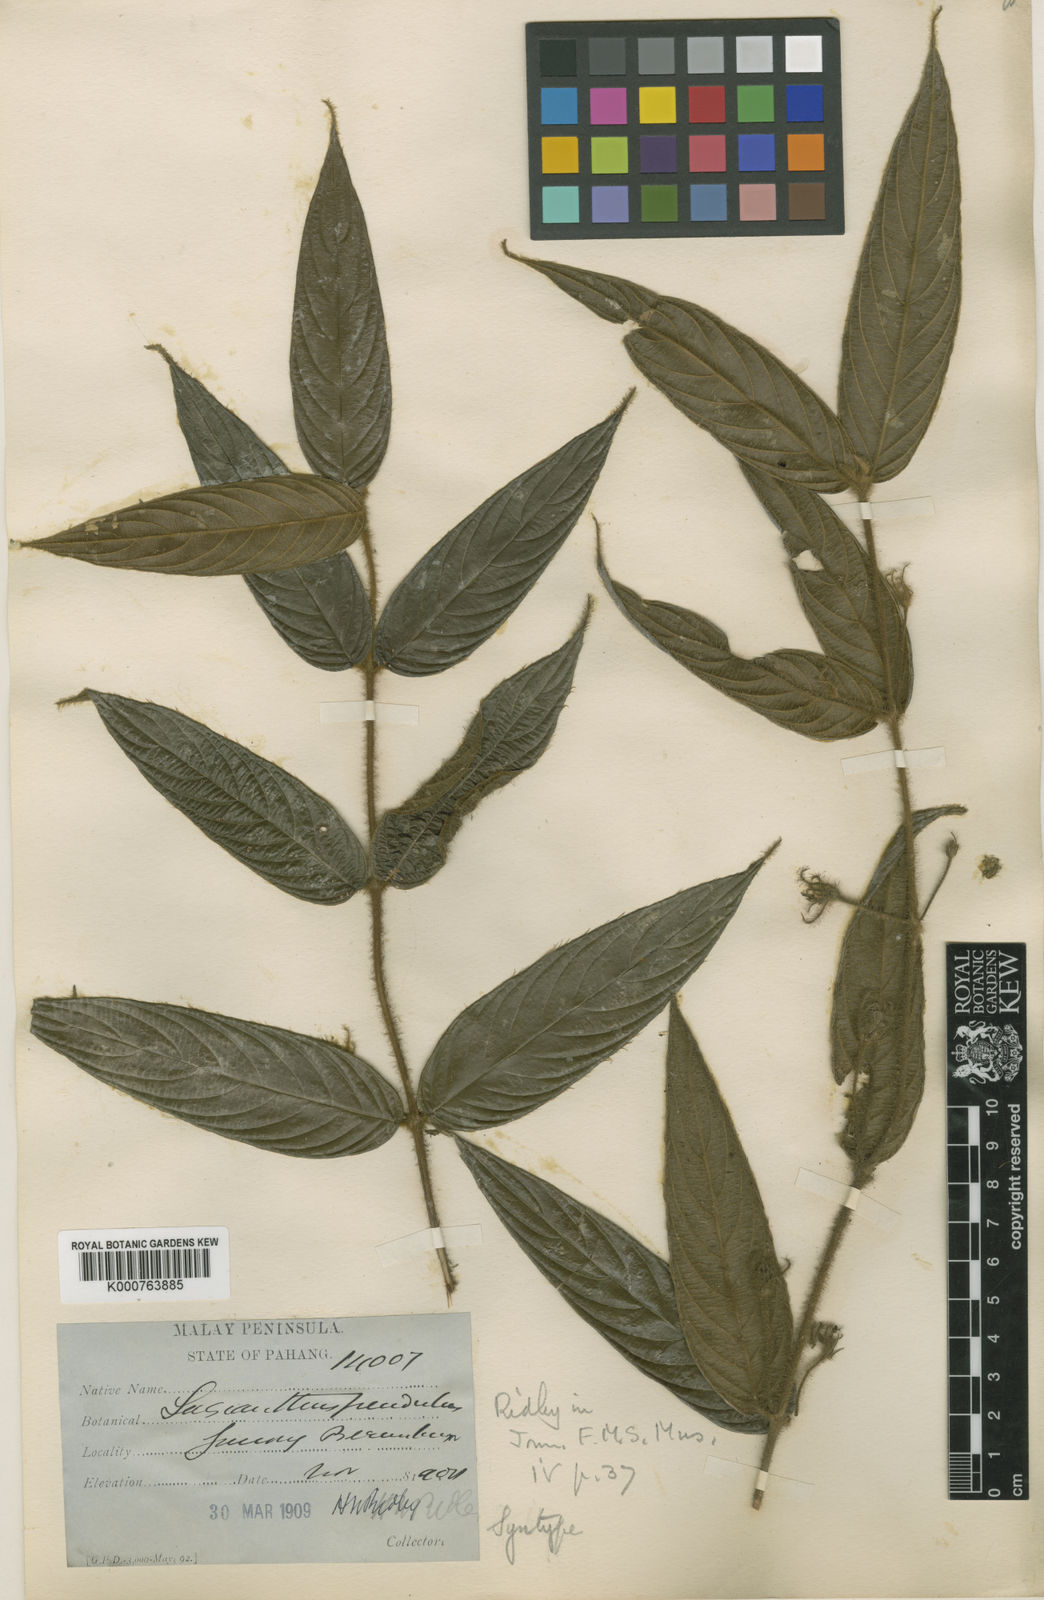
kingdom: Plantae
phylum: Tracheophyta
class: Magnoliopsida
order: Gentianales
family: Rubiaceae
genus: Lasianthus
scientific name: Lasianthus pendulus
